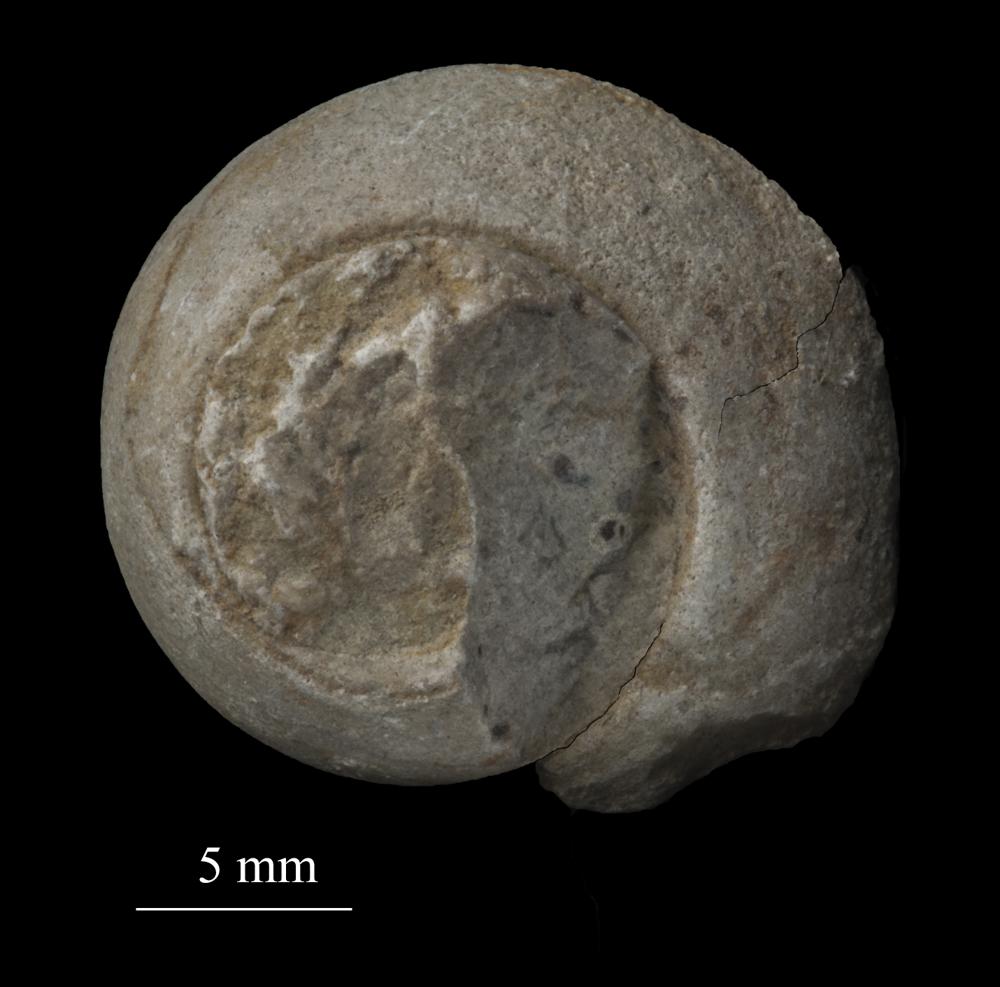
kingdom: Animalia
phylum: Mollusca
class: Gastropoda
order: Trochida
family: Trochidae
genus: Trochus
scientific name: Trochus ellipticus
